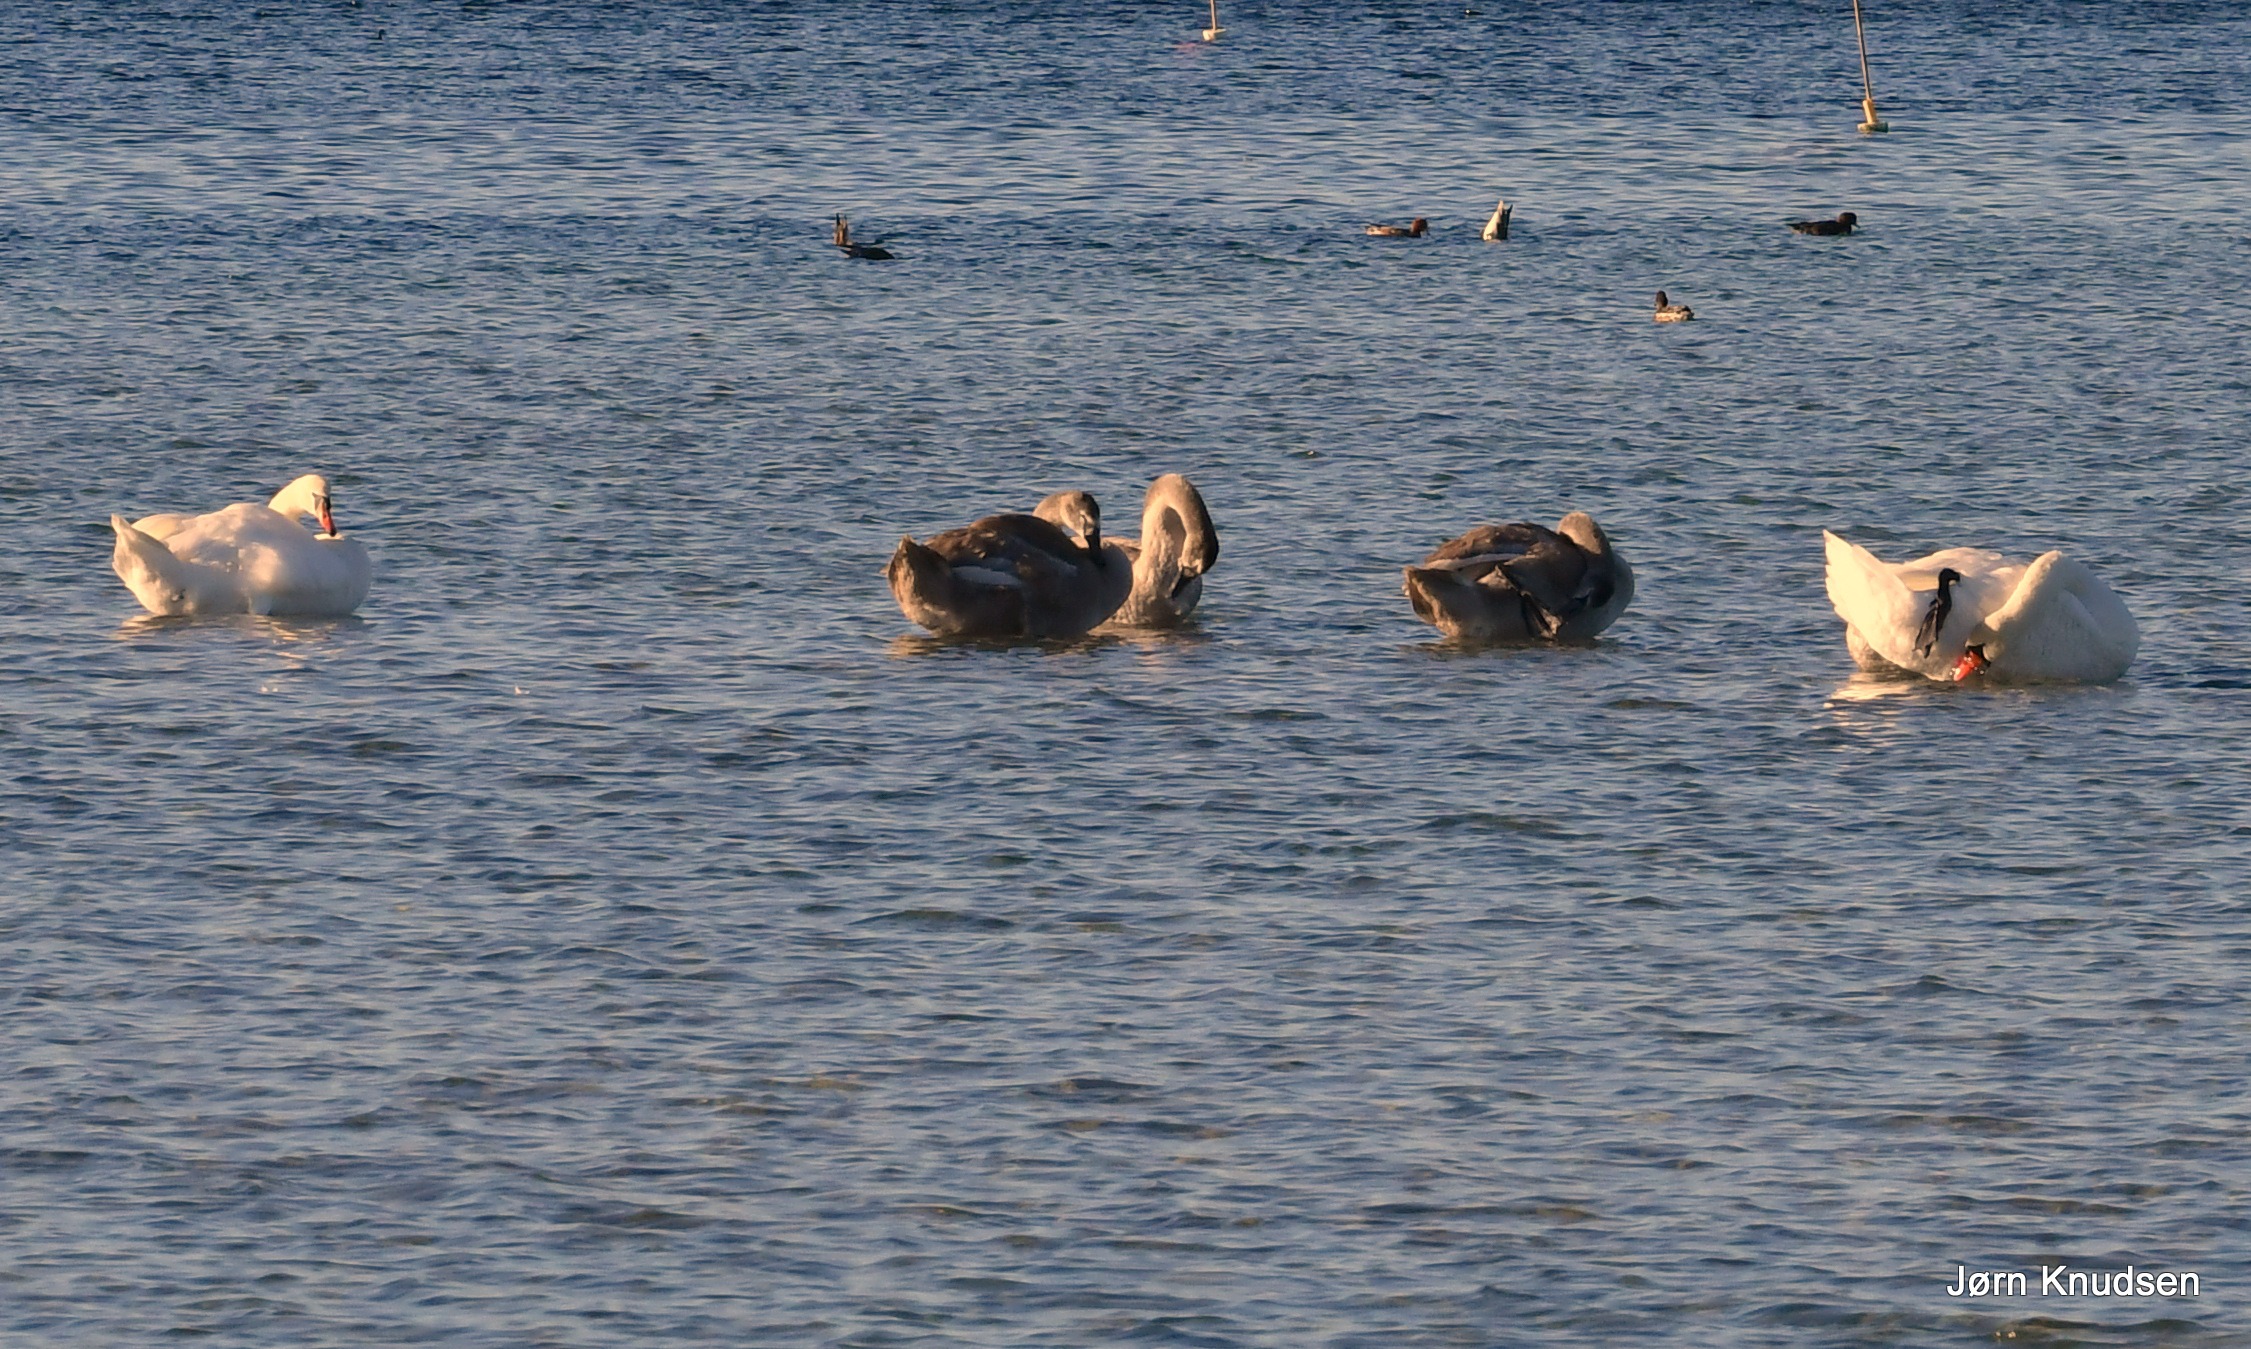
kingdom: Animalia
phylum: Chordata
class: Aves
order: Anseriformes
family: Anatidae
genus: Cygnus
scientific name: Cygnus olor
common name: Knopsvane
